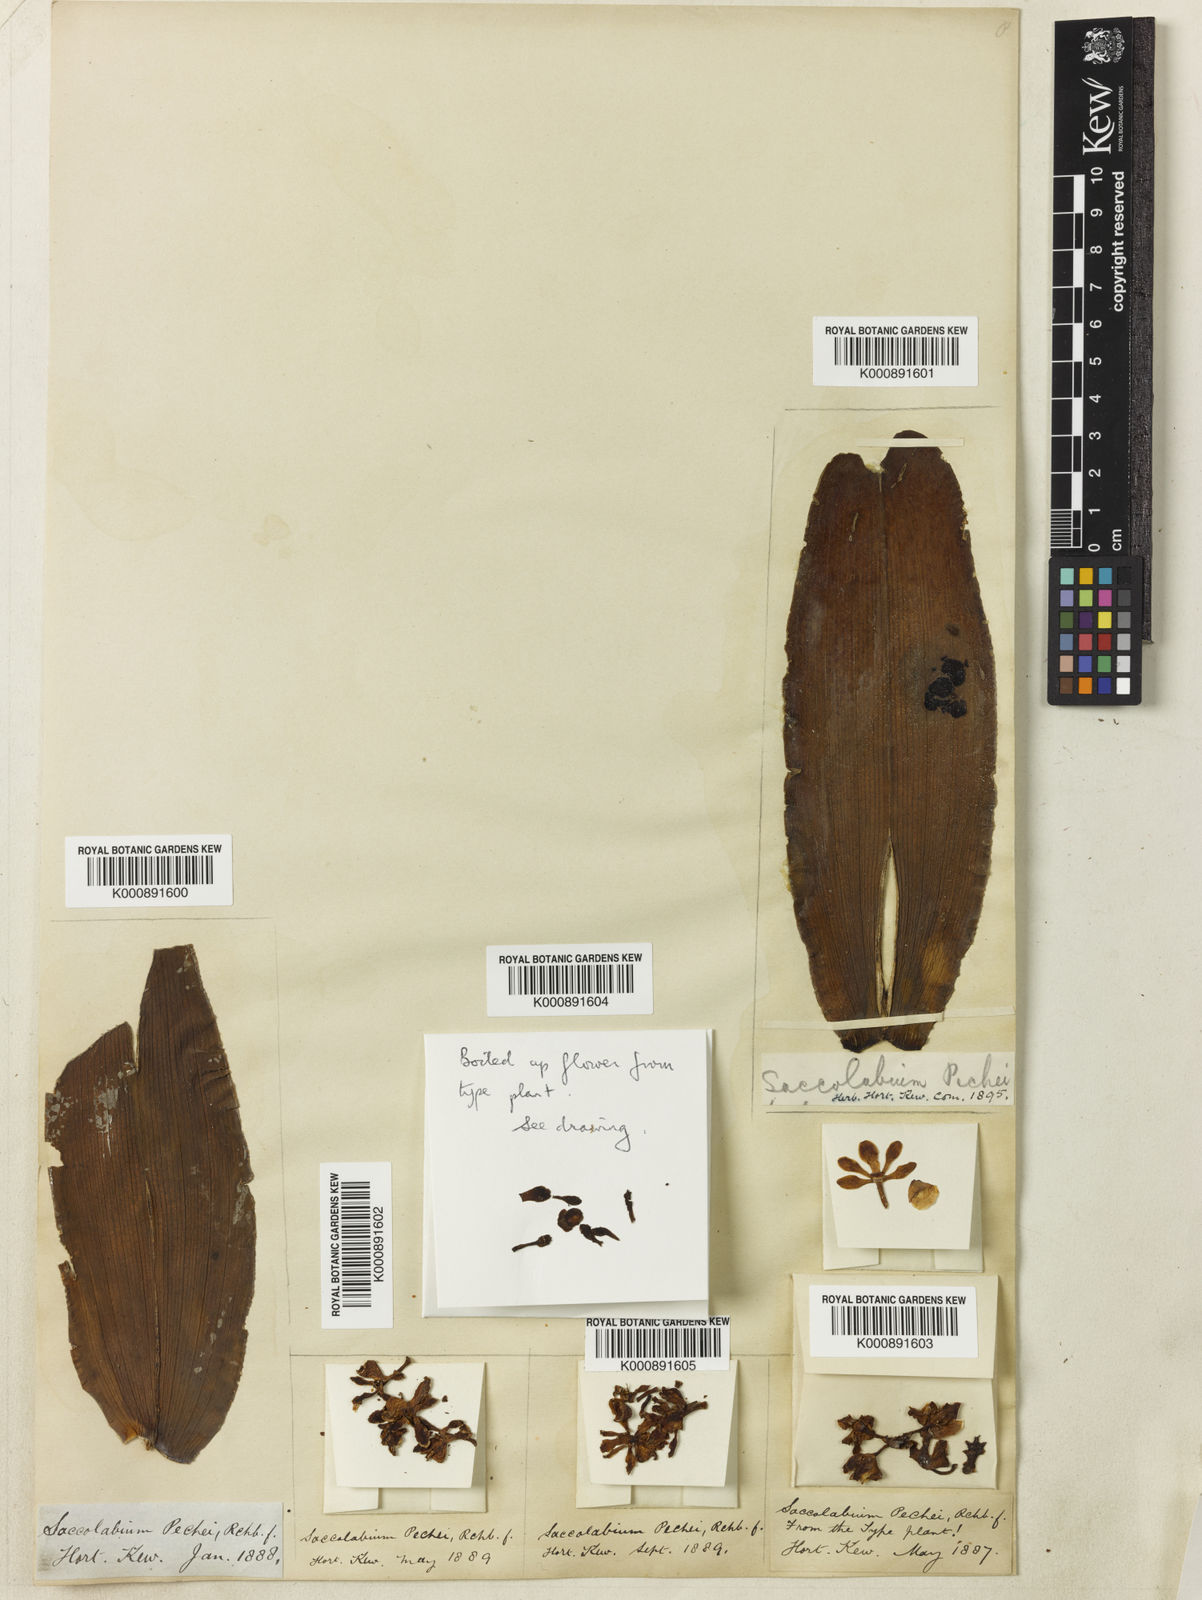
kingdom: Plantae
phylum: Tracheophyta
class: Liliopsida
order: Asparagales
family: Orchidaceae
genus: Gastrochilus
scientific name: Gastrochilus pechei
